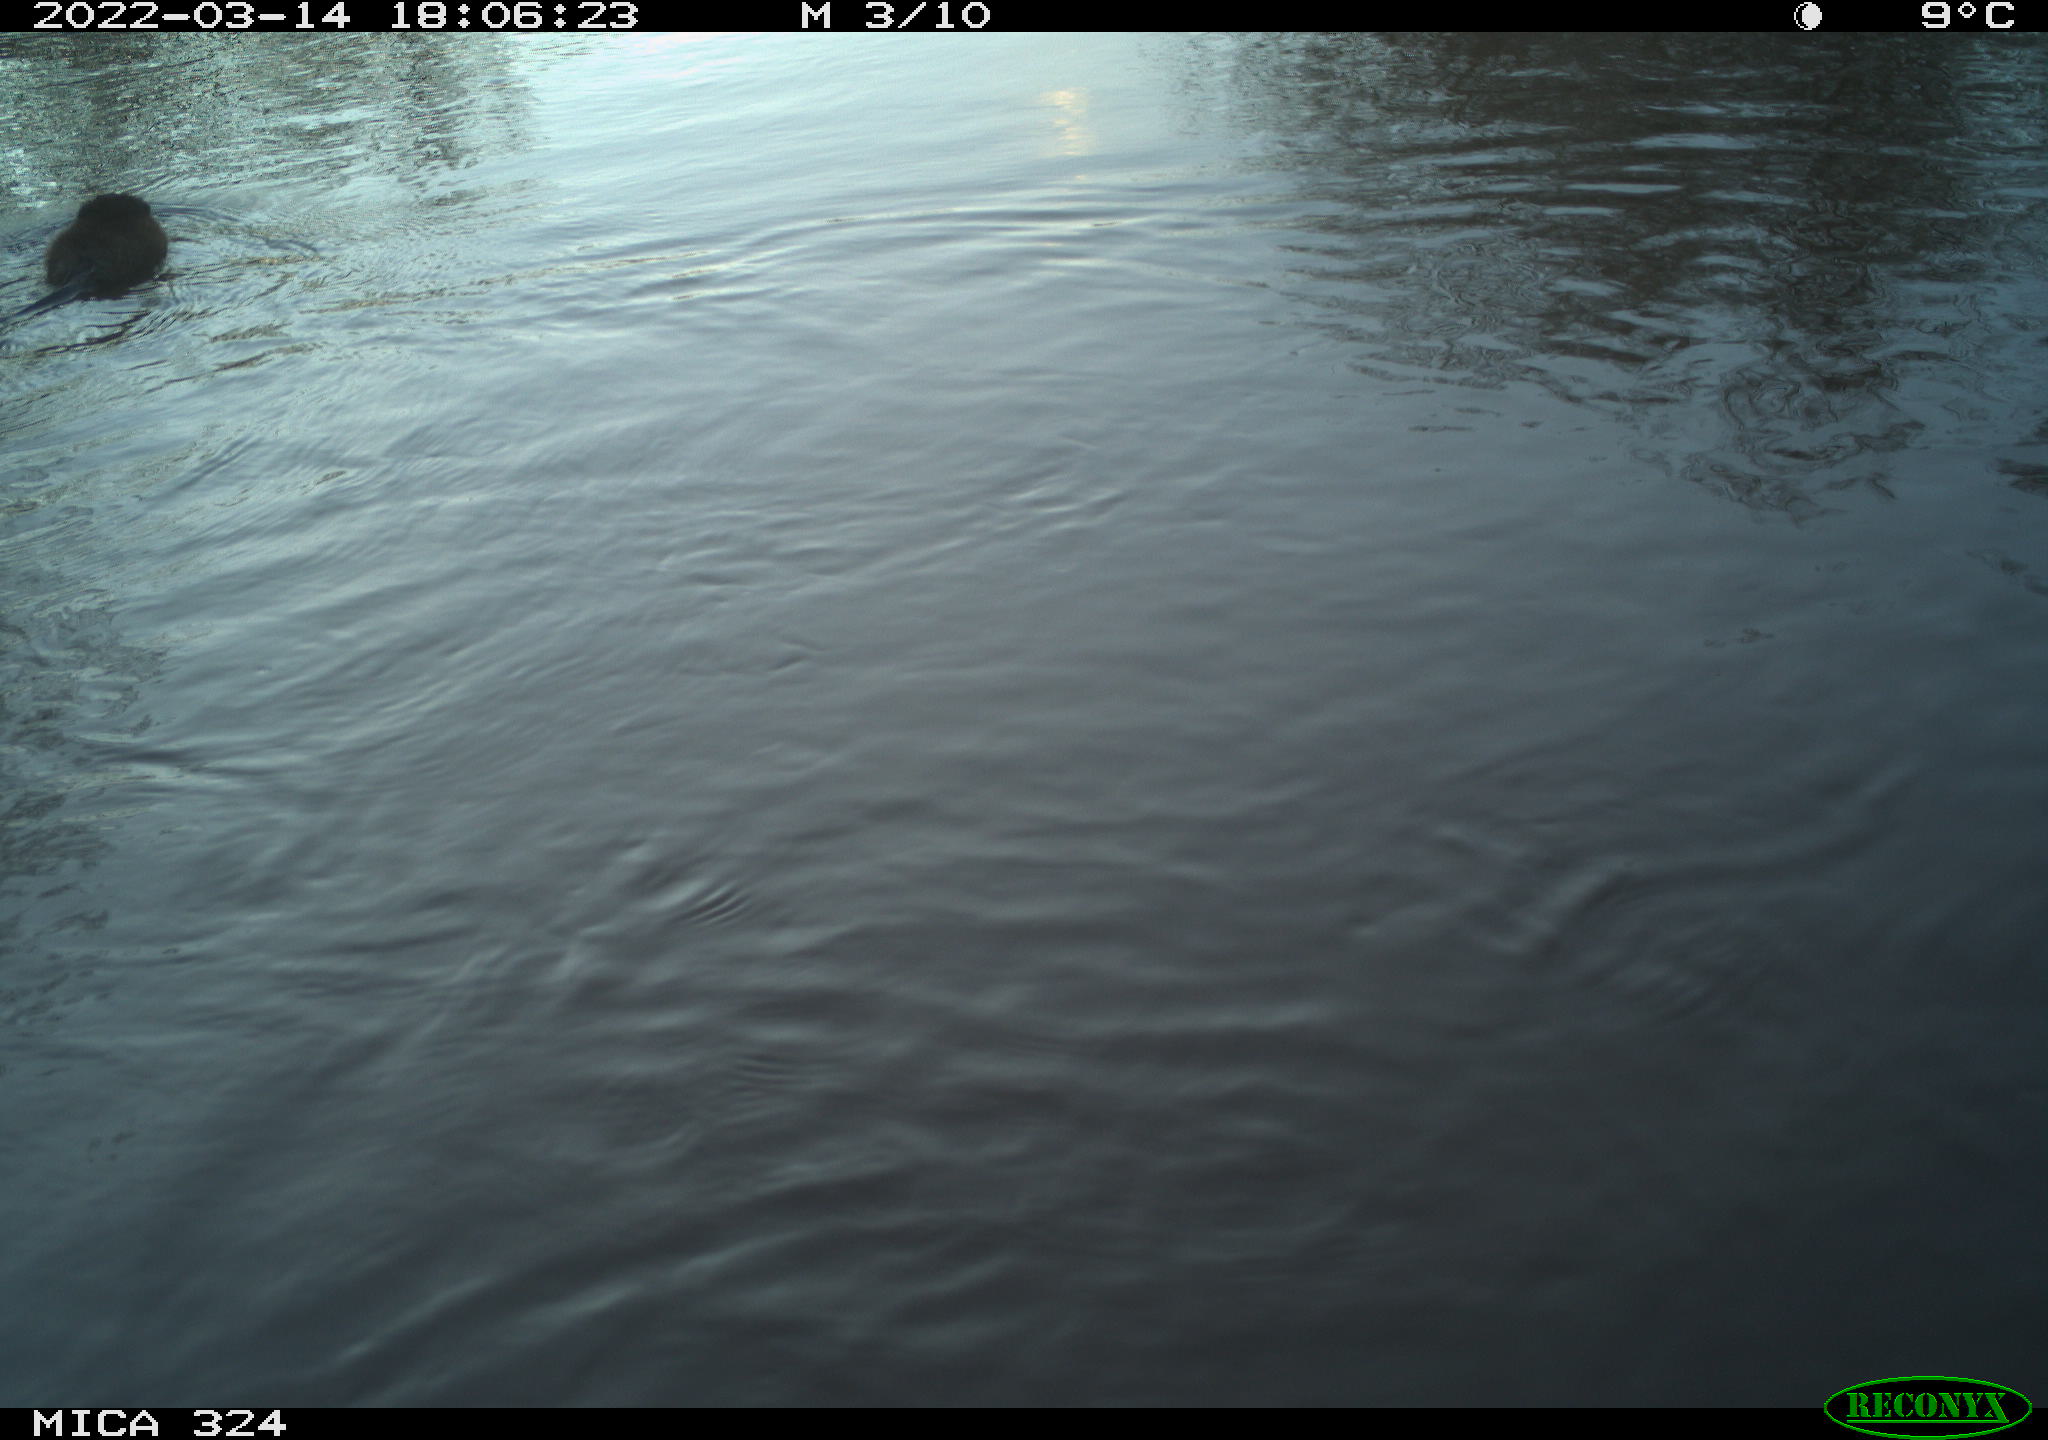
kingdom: Animalia
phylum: Chordata
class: Mammalia
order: Rodentia
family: Cricetidae
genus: Ondatra
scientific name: Ondatra zibethicus
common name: Muskrat
